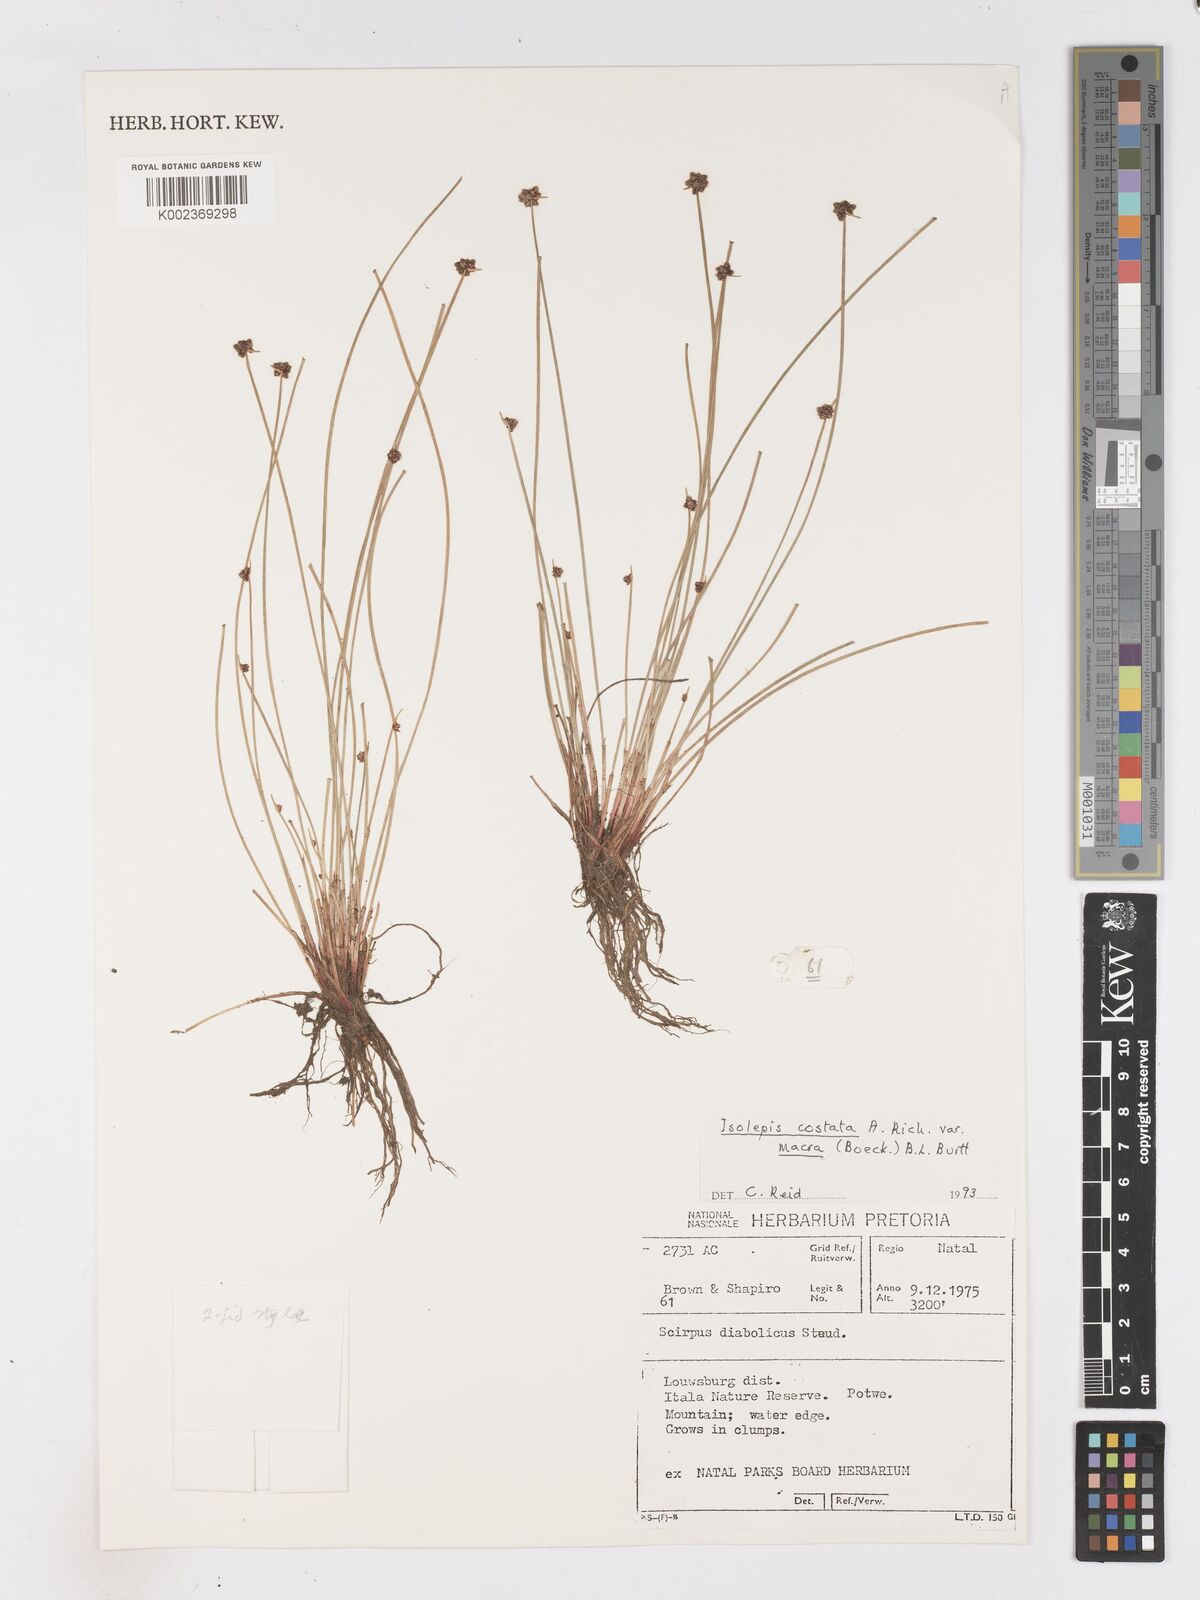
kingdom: Plantae
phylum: Tracheophyta
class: Liliopsida
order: Poales
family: Cyperaceae
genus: Isolepis
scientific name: Isolepis costata
